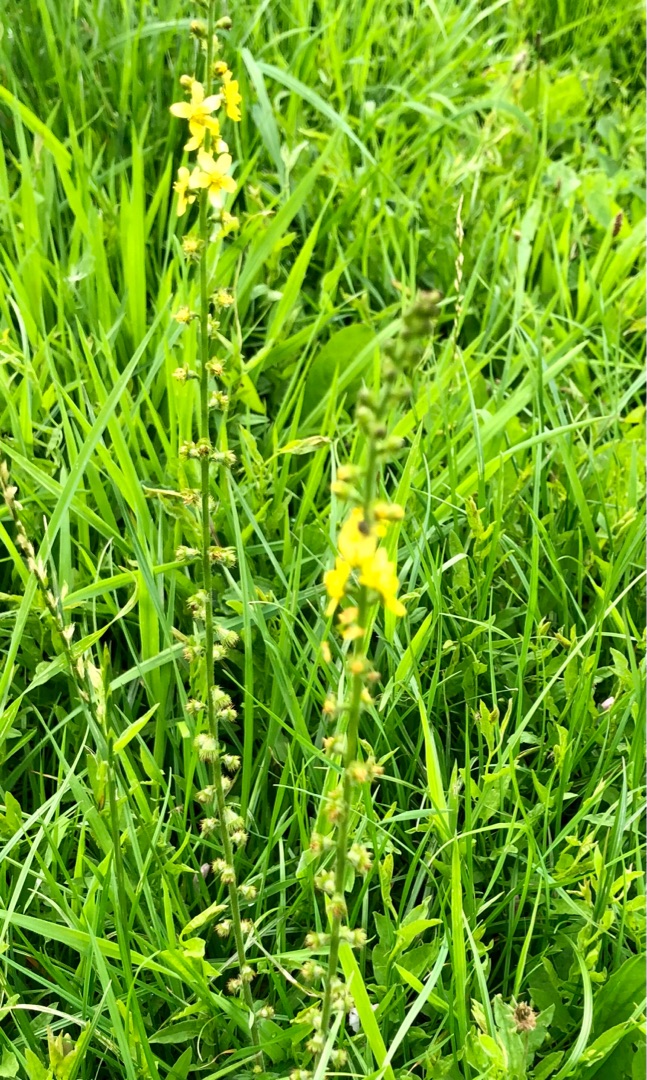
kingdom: Plantae
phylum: Tracheophyta
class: Magnoliopsida
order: Rosales
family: Rosaceae
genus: Agrimonia
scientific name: Agrimonia eupatoria
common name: Almindelig agermåne
